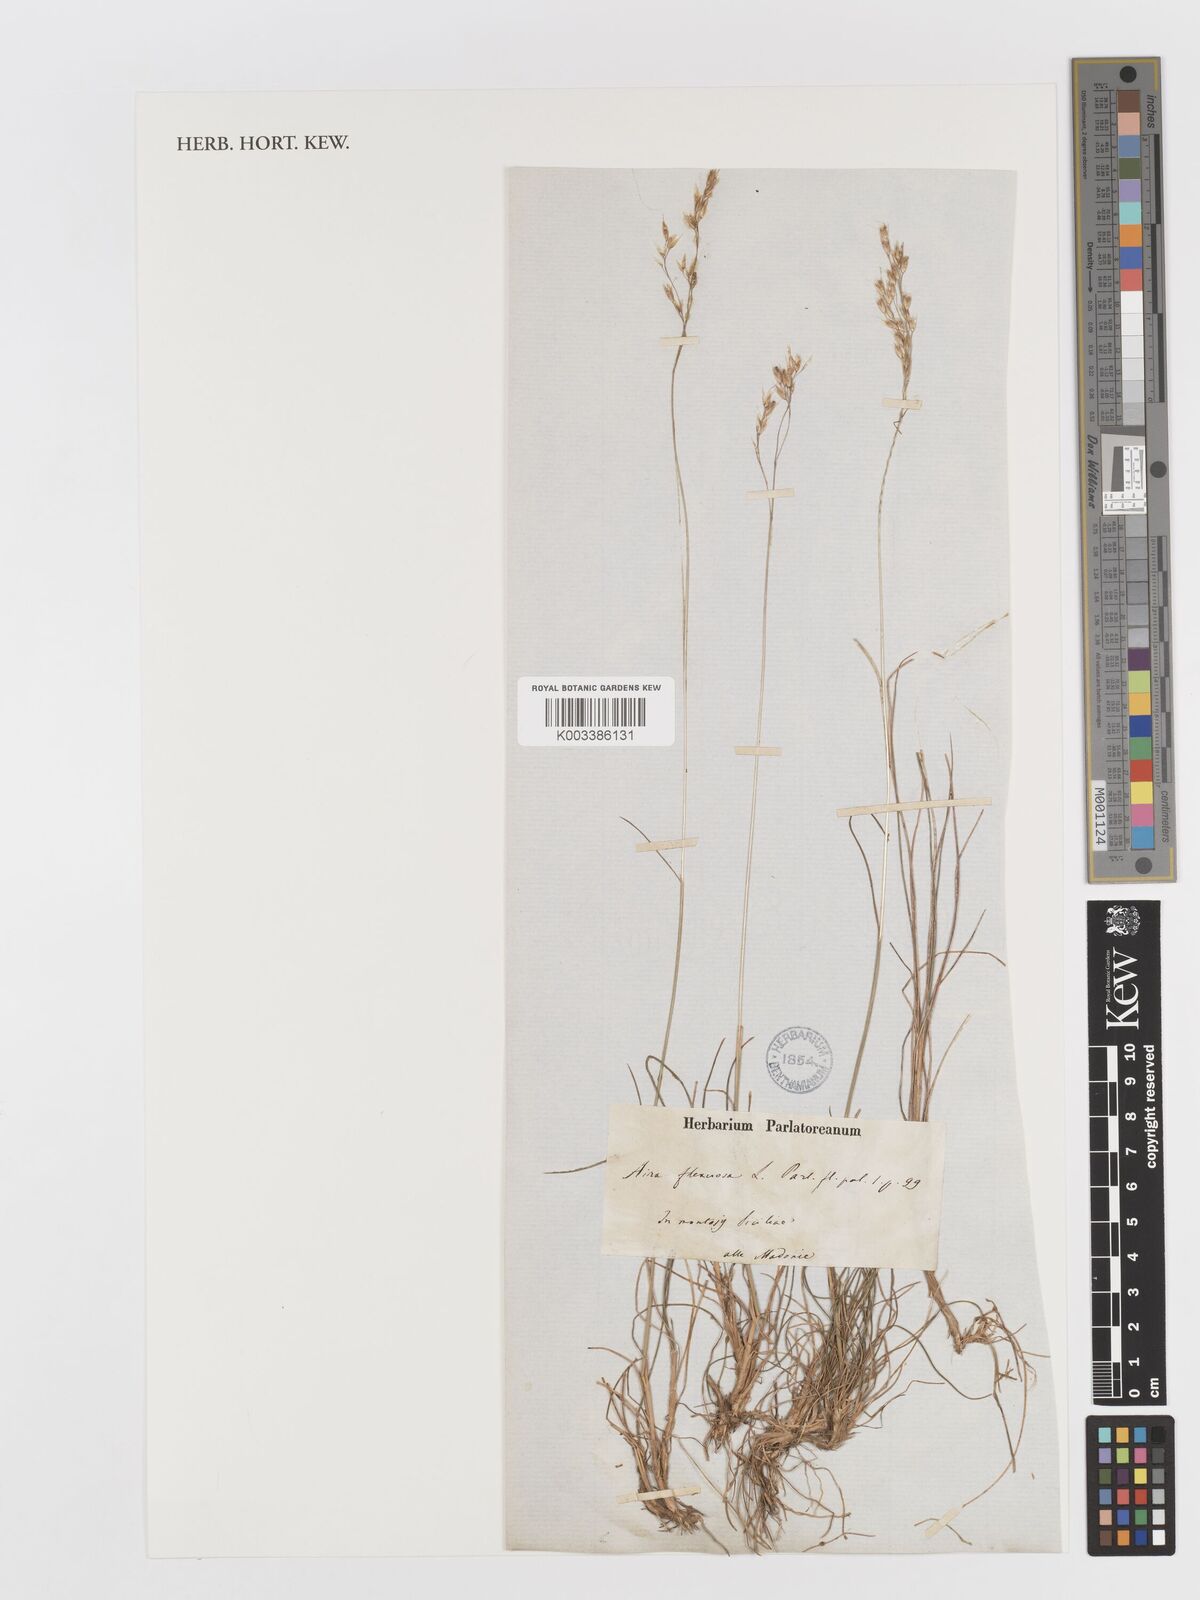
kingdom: Plantae
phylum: Tracheophyta
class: Liliopsida
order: Poales
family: Poaceae
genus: Avenella
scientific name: Avenella flexuosa
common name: Wavy hairgrass
